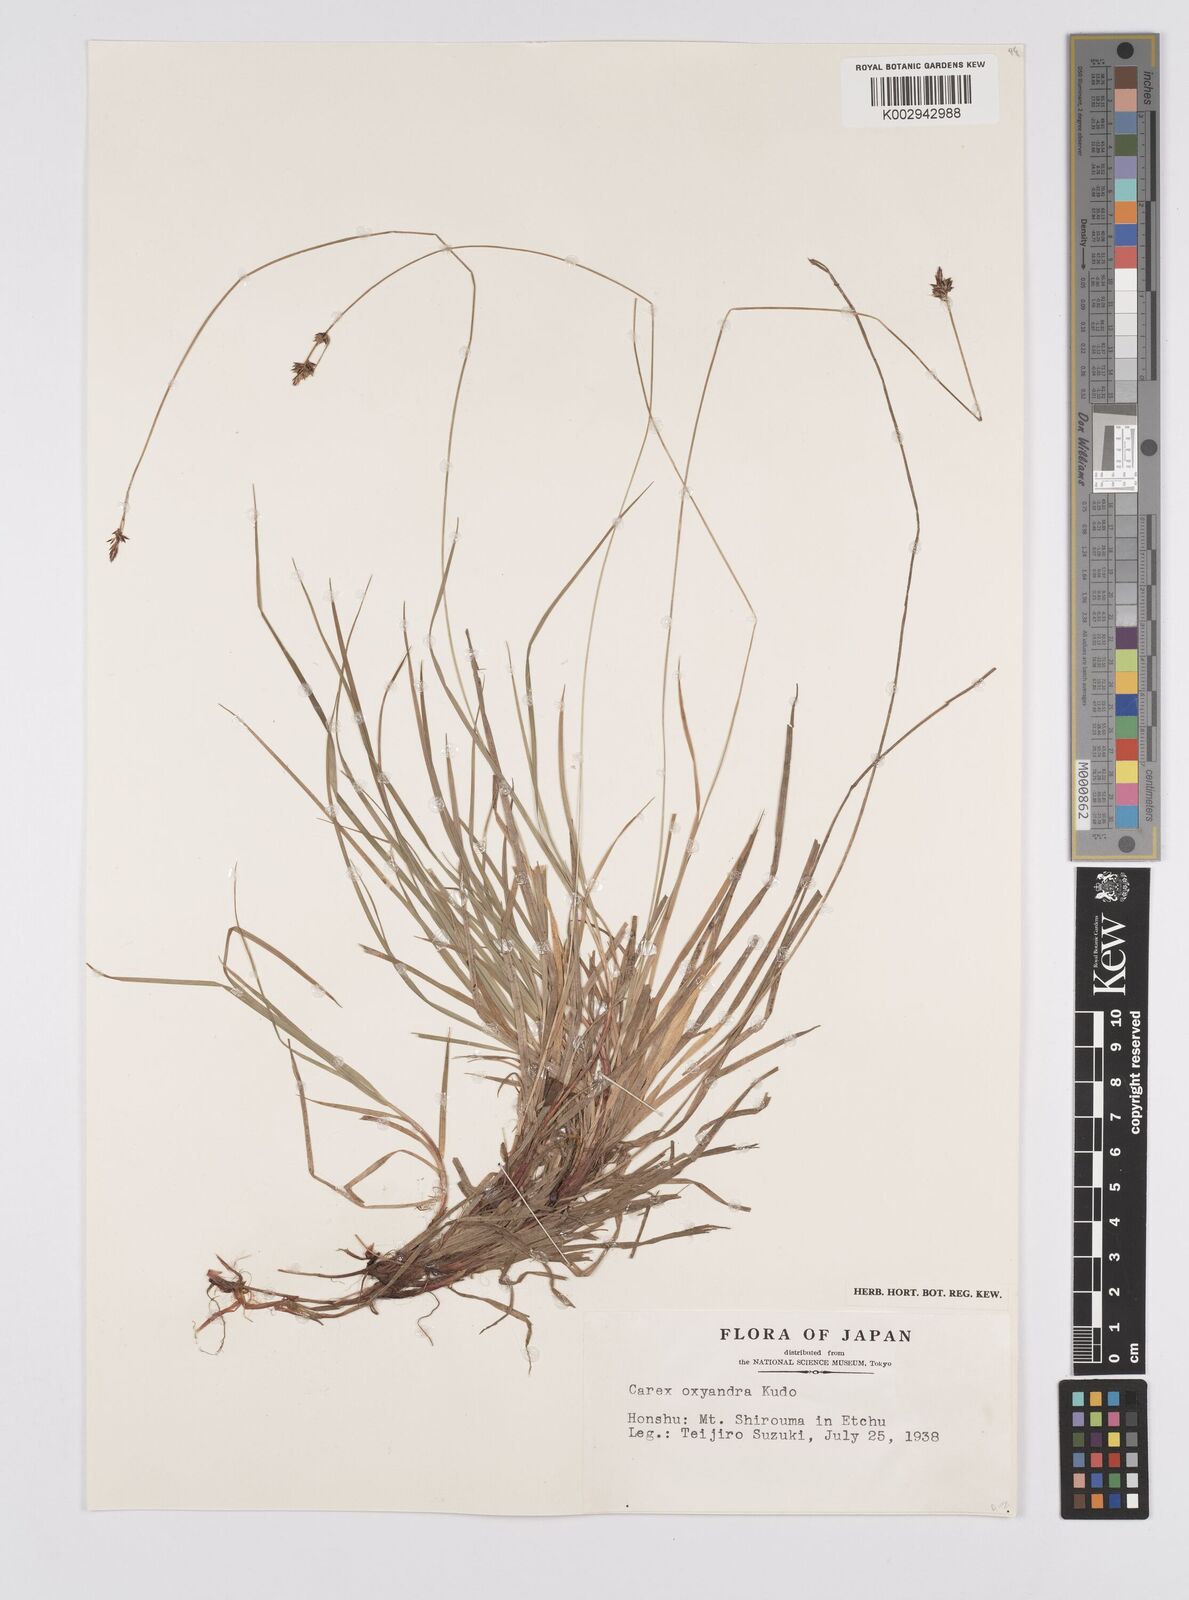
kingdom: Plantae
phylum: Tracheophyta
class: Liliopsida
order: Poales
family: Cyperaceae
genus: Carex
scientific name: Carex oxyandra
